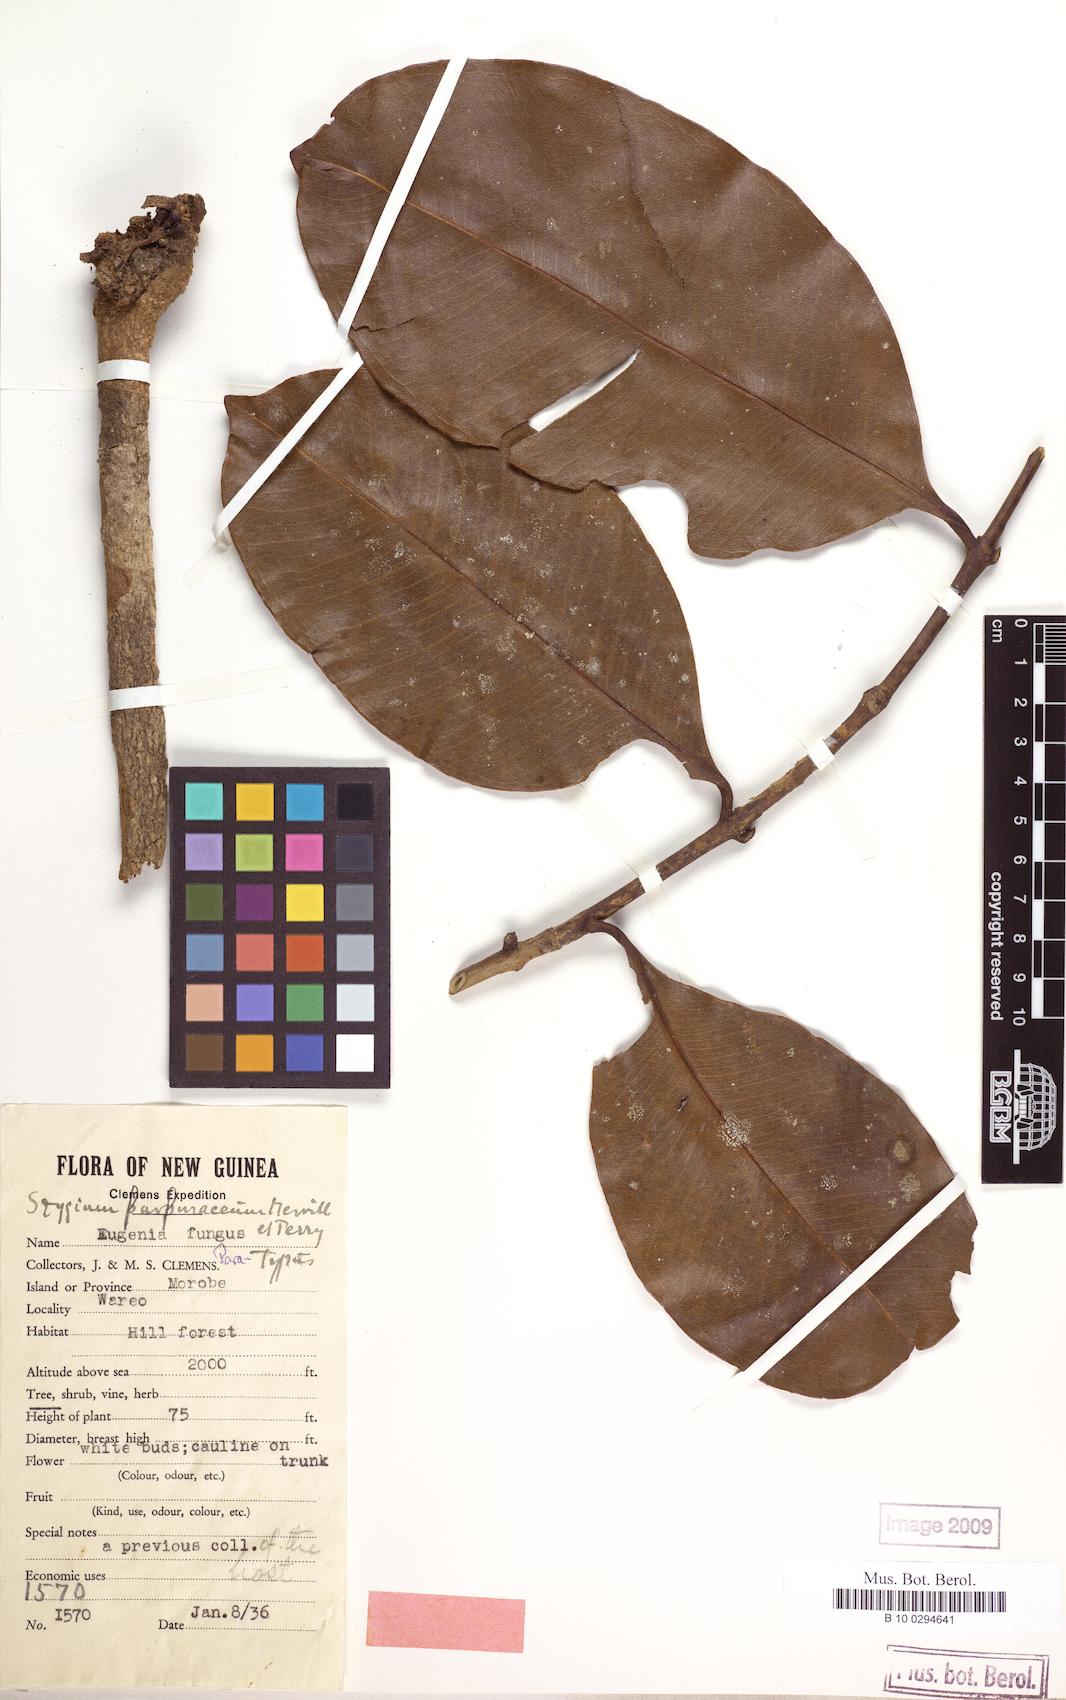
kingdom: Plantae
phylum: Tracheophyta
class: Magnoliopsida
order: Myrtales
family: Myrtaceae
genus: Syzygium
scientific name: Syzygium furfuraceum
